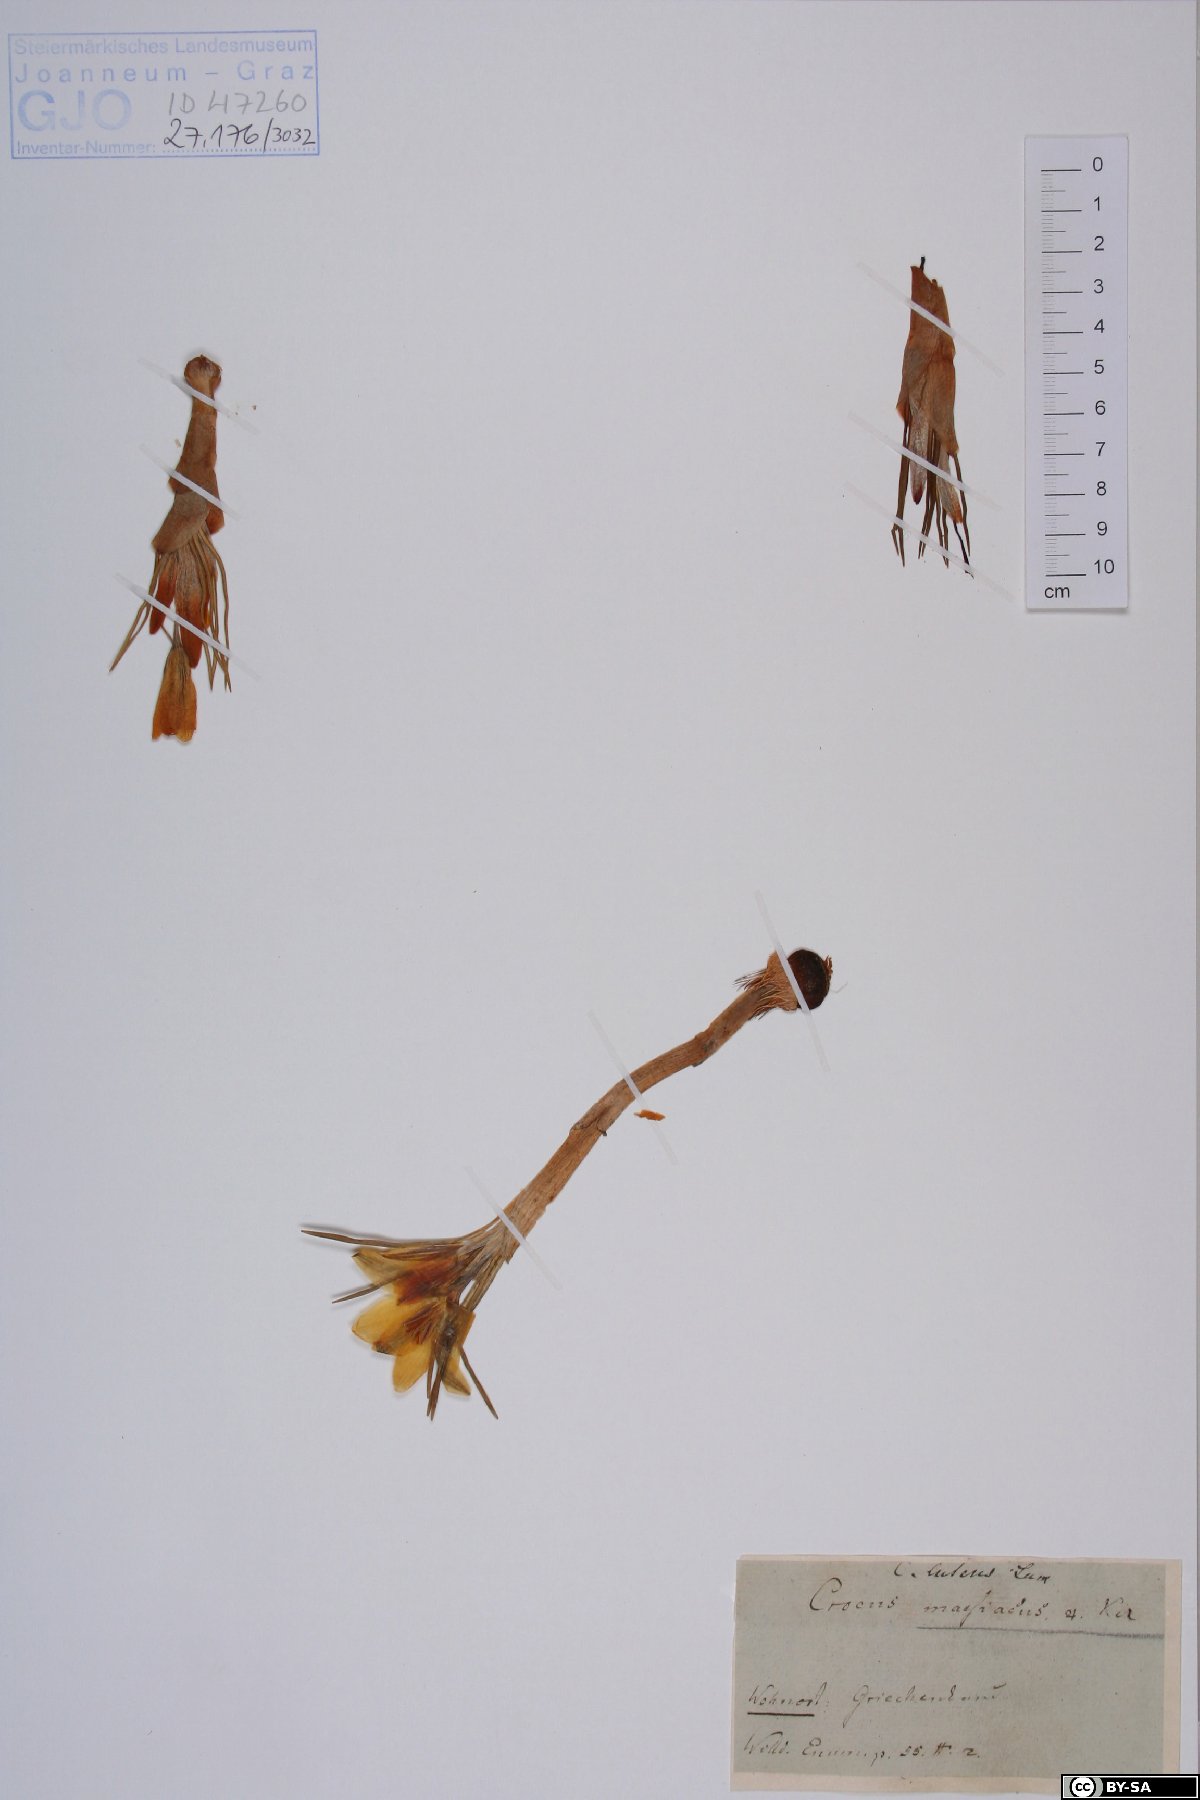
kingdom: Plantae
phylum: Tracheophyta
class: Liliopsida
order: Asparagales
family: Iridaceae
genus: Crocus
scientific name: Crocus flavus
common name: Yellow crocus
